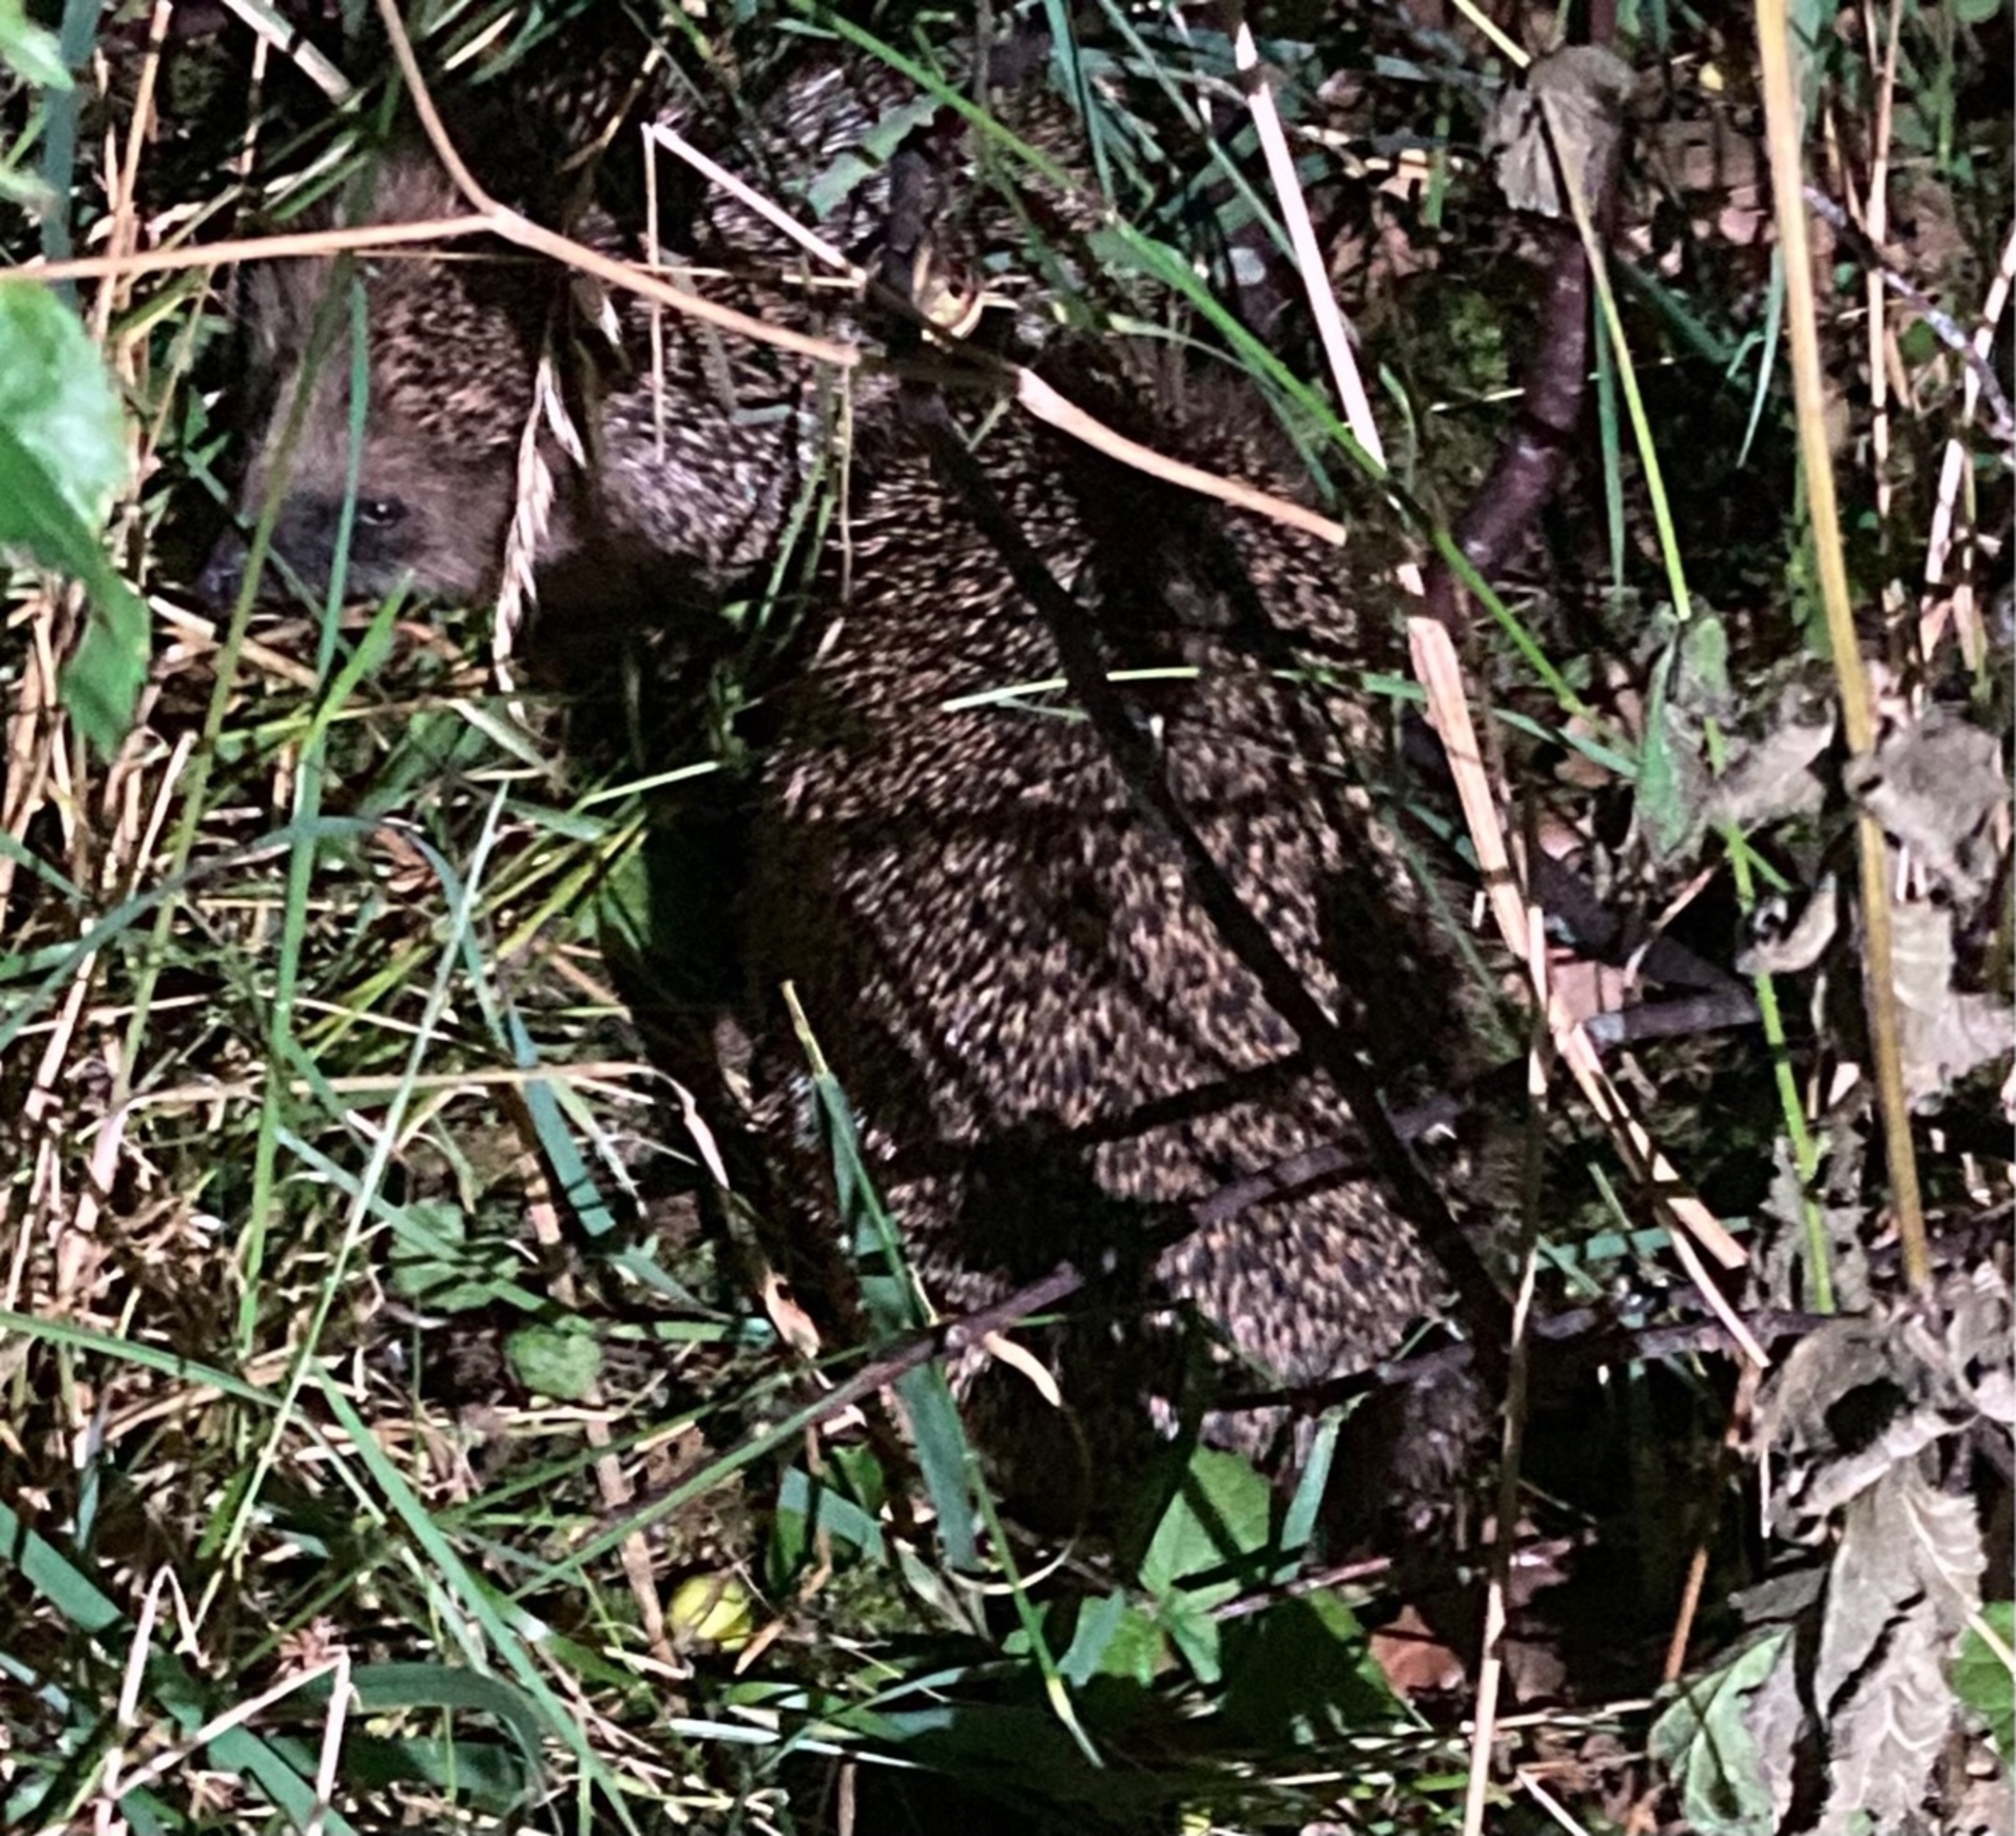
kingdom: Animalia
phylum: Chordata
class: Mammalia
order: Erinaceomorpha
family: Erinaceidae
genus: Erinaceus
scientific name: Erinaceus europaeus
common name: Pindsvin
